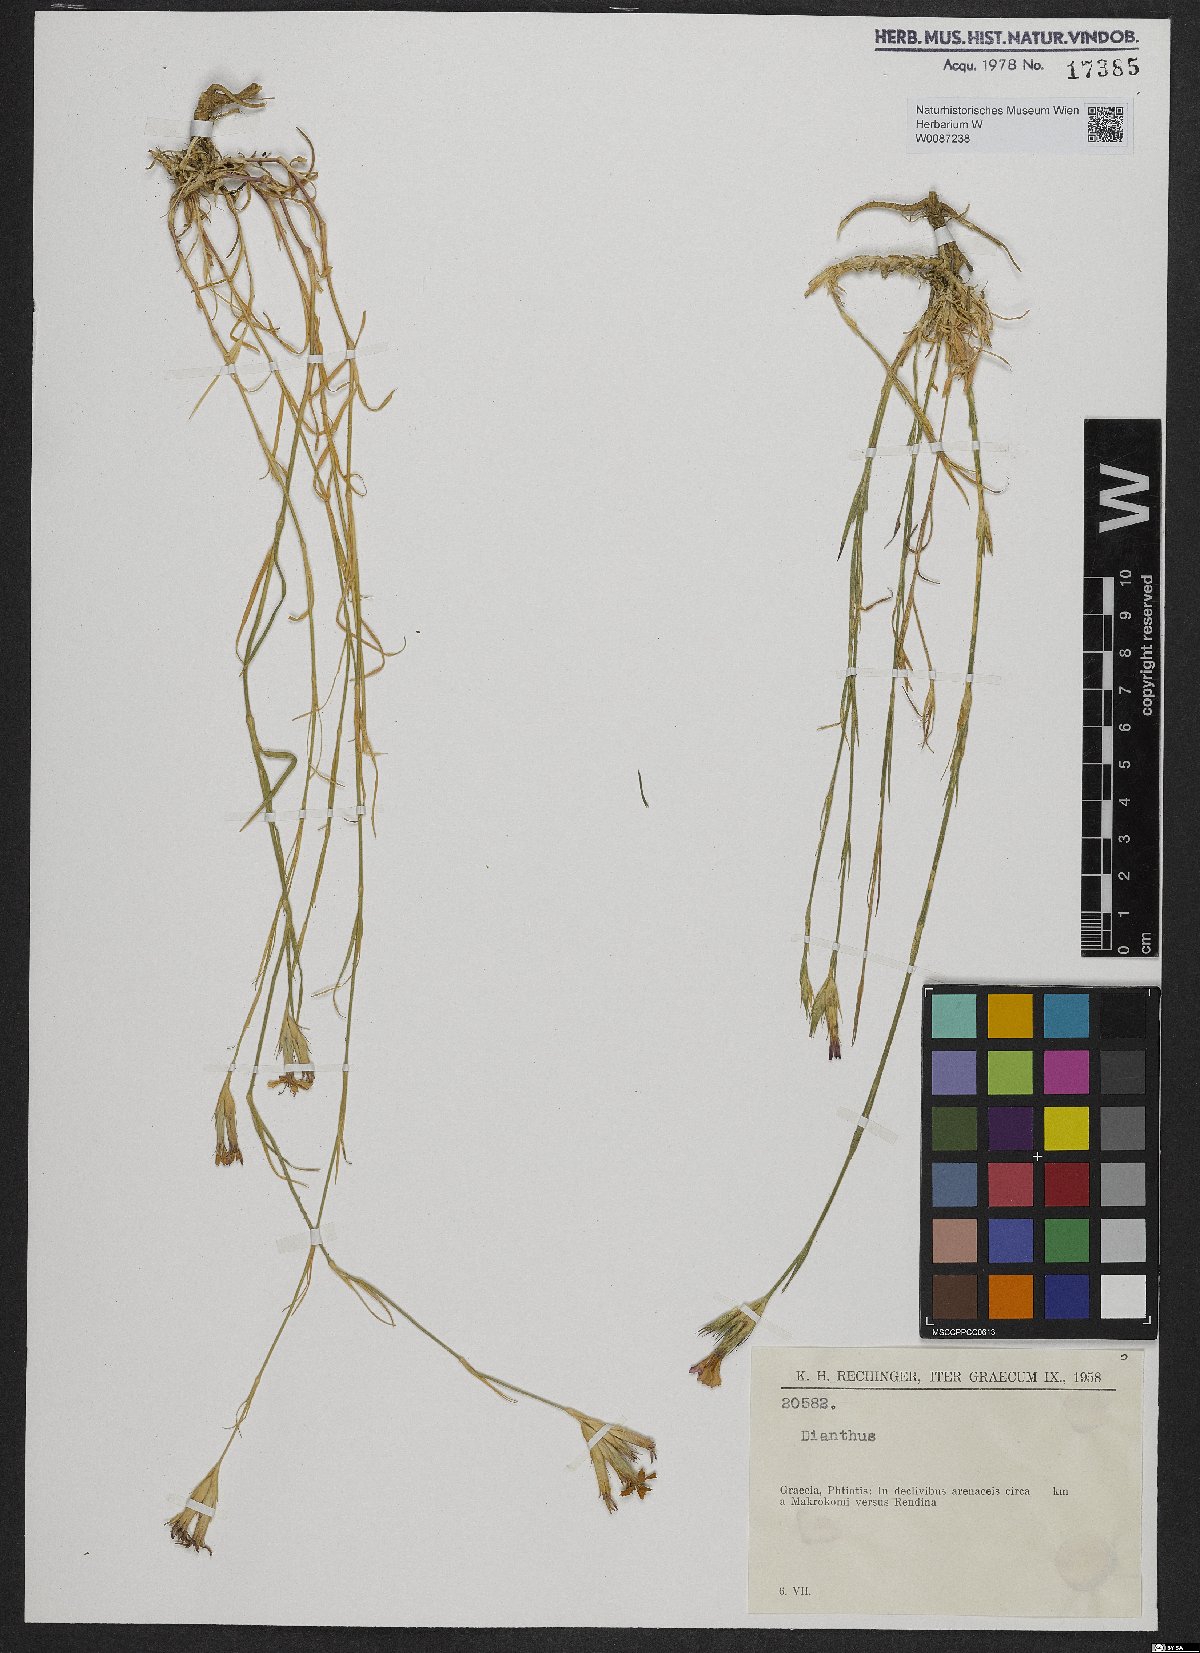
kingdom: Plantae
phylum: Tracheophyta
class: Magnoliopsida
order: Caryophyllales
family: Caryophyllaceae
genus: Dianthus
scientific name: Dianthus
